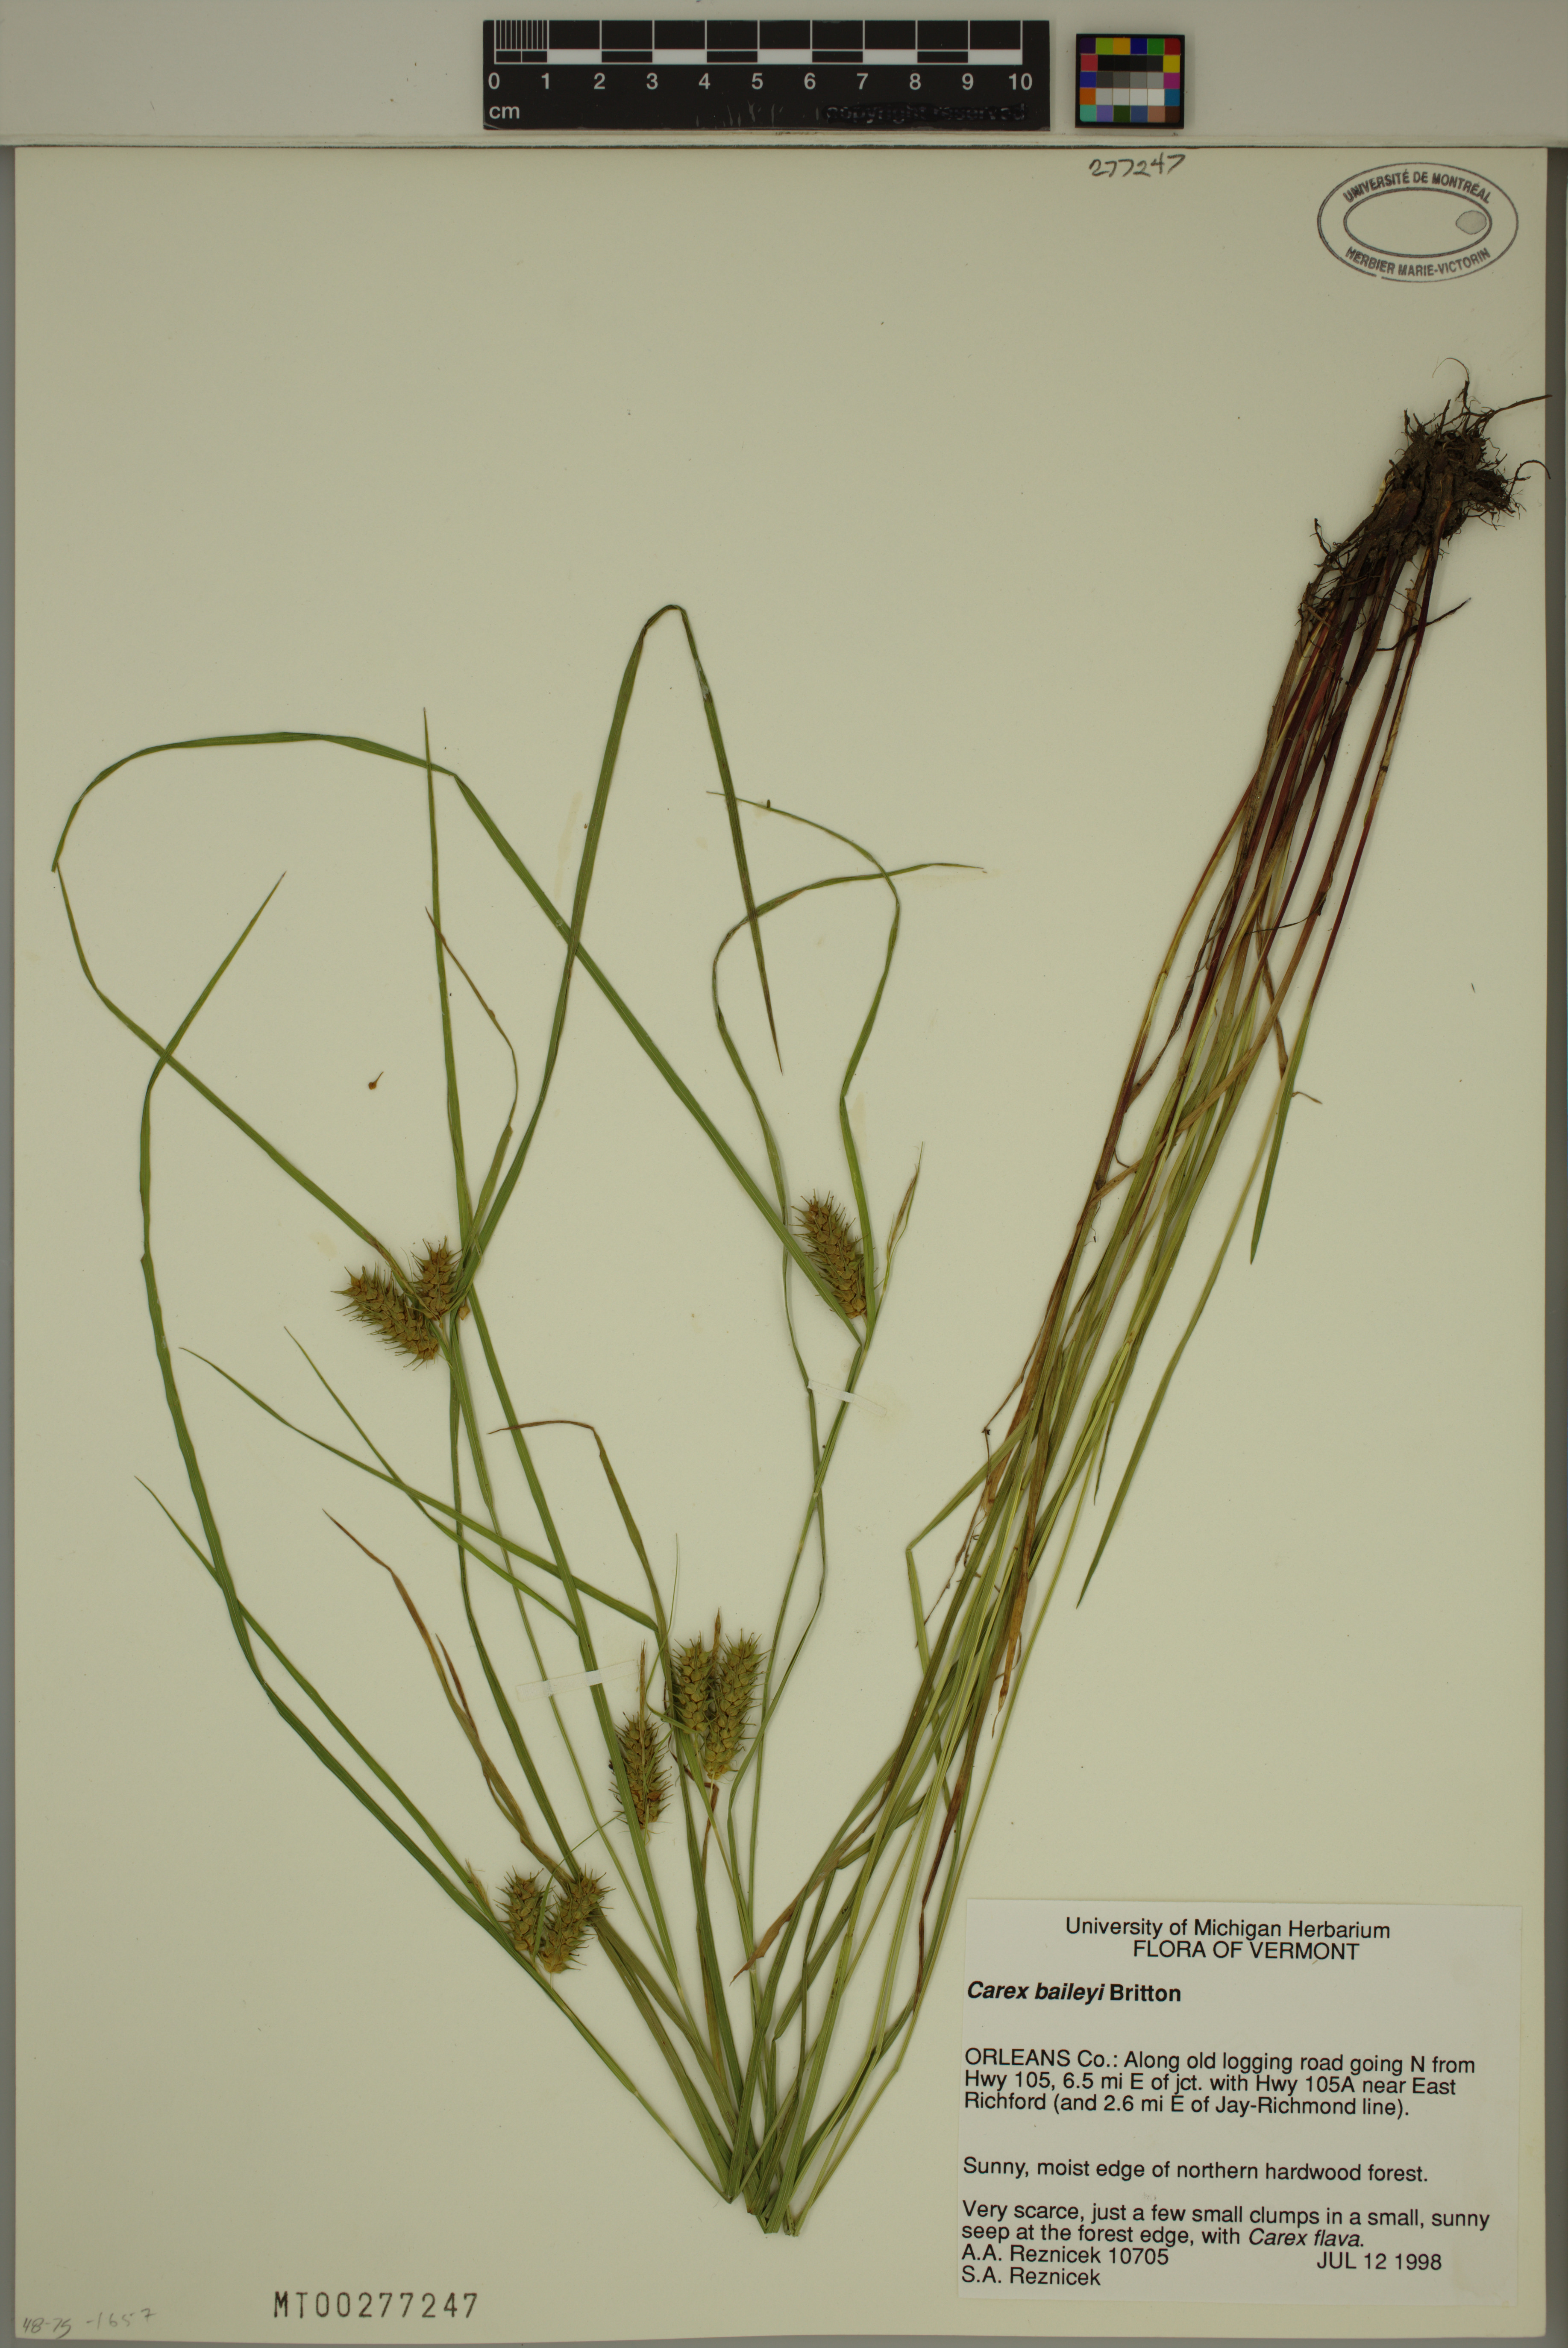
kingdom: Plantae
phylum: Tracheophyta
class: Liliopsida
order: Poales
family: Cyperaceae
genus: Carex
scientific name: Carex baileyi
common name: Bailey's sedge
